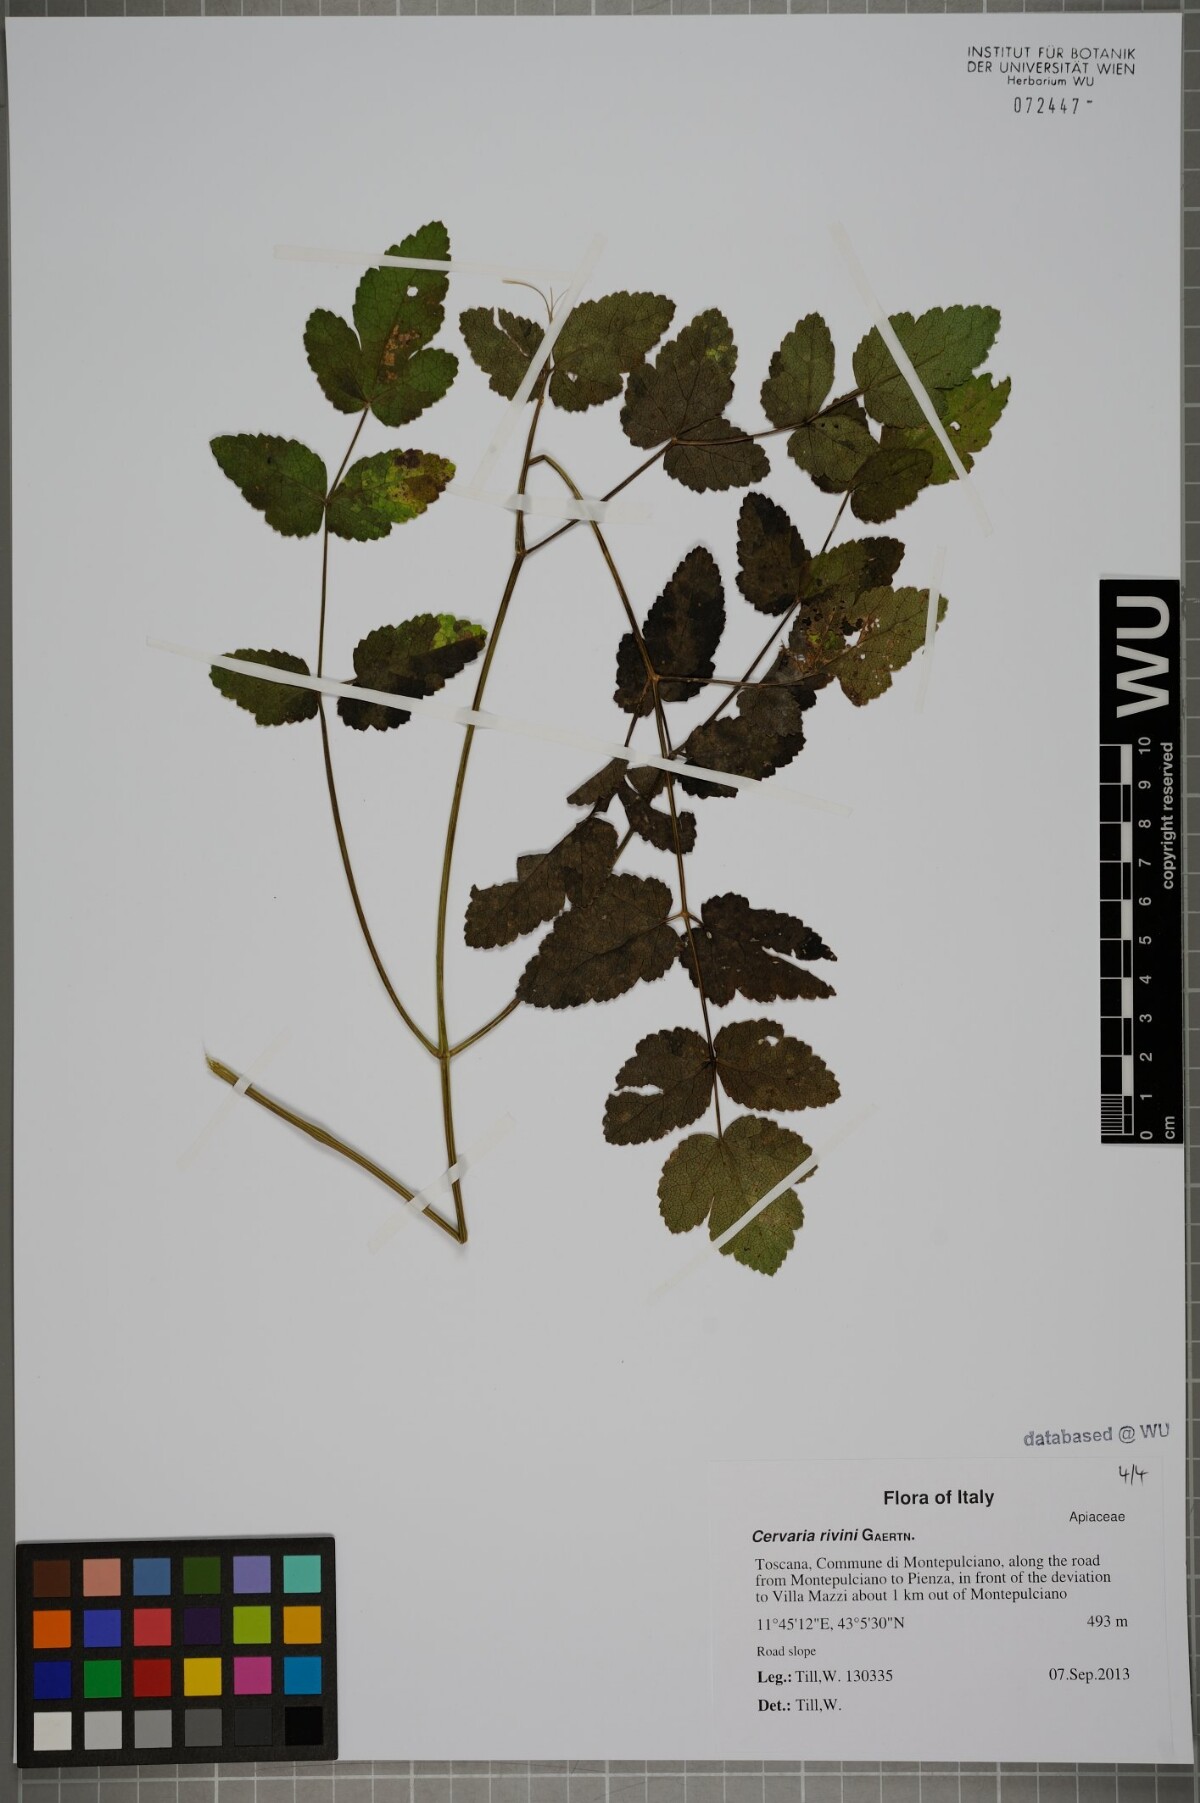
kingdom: Plantae
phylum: Tracheophyta
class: Magnoliopsida
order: Apiales
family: Apiaceae
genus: Cervaria
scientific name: Cervaria rivini
